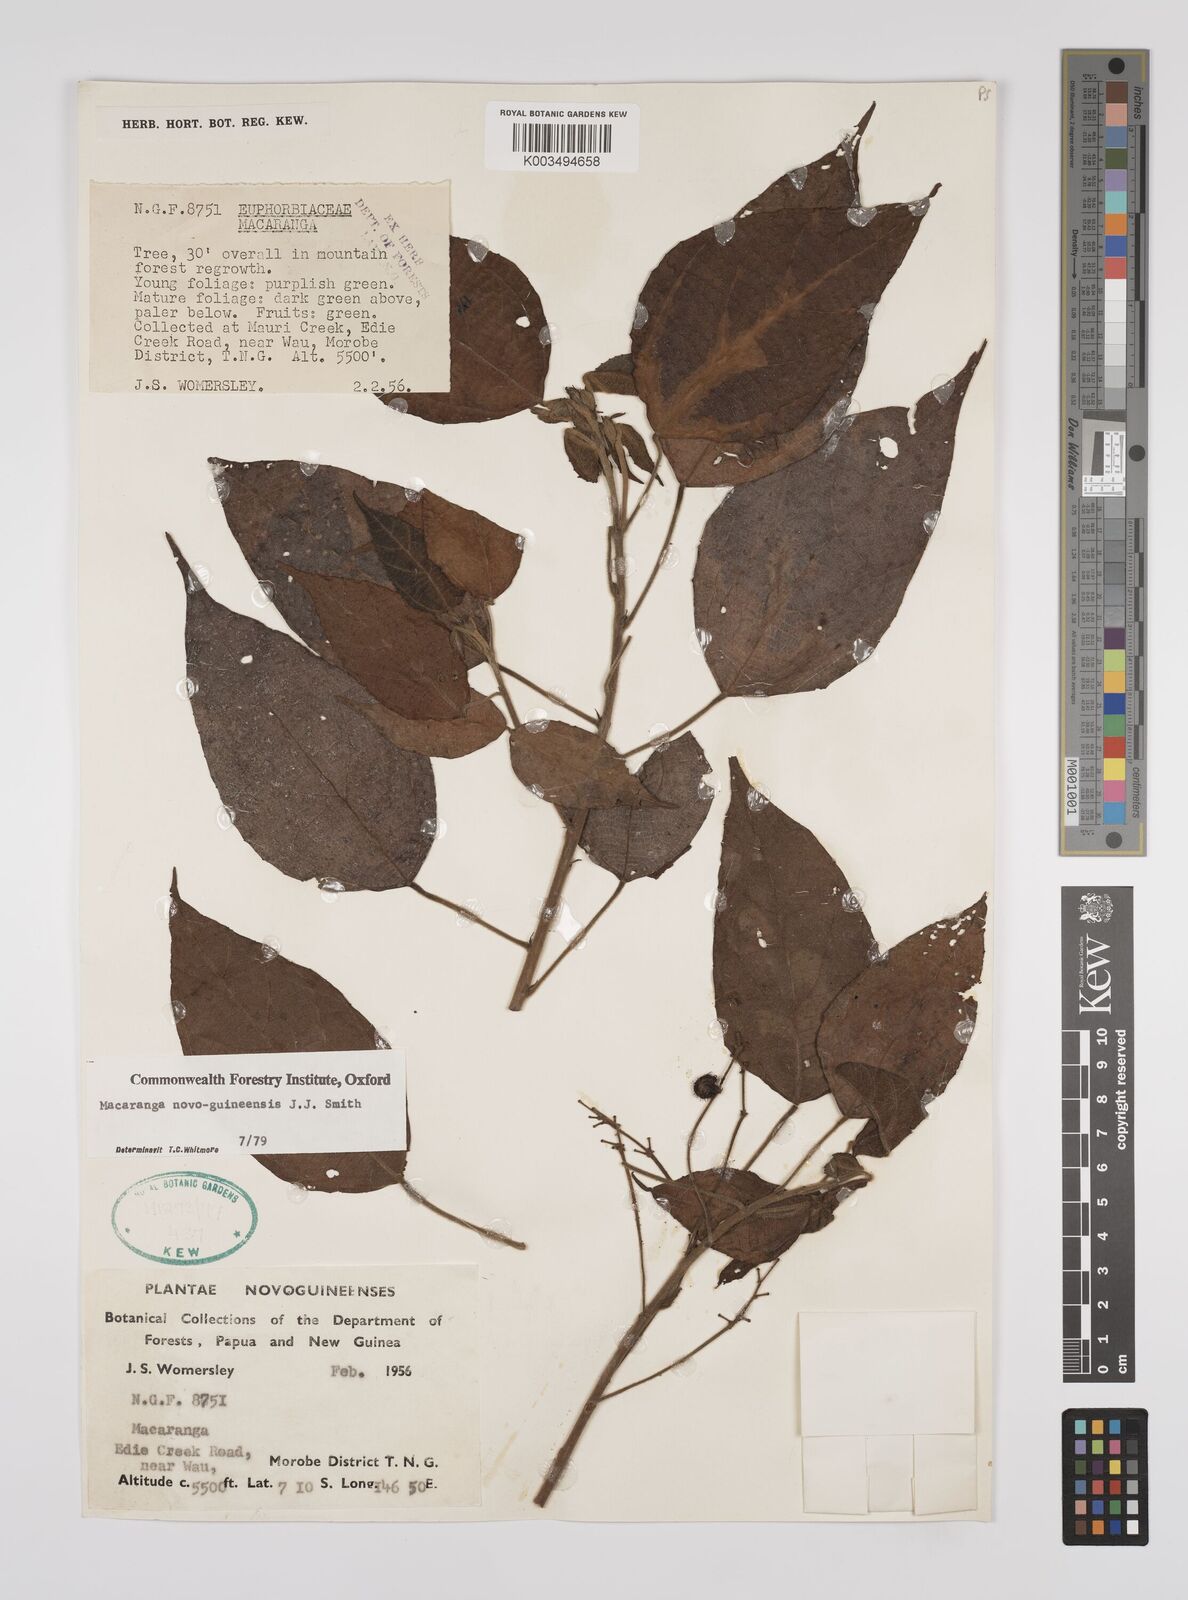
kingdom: Plantae
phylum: Tracheophyta
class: Magnoliopsida
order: Malpighiales
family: Euphorbiaceae
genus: Macaranga
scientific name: Macaranga novoguineensis
